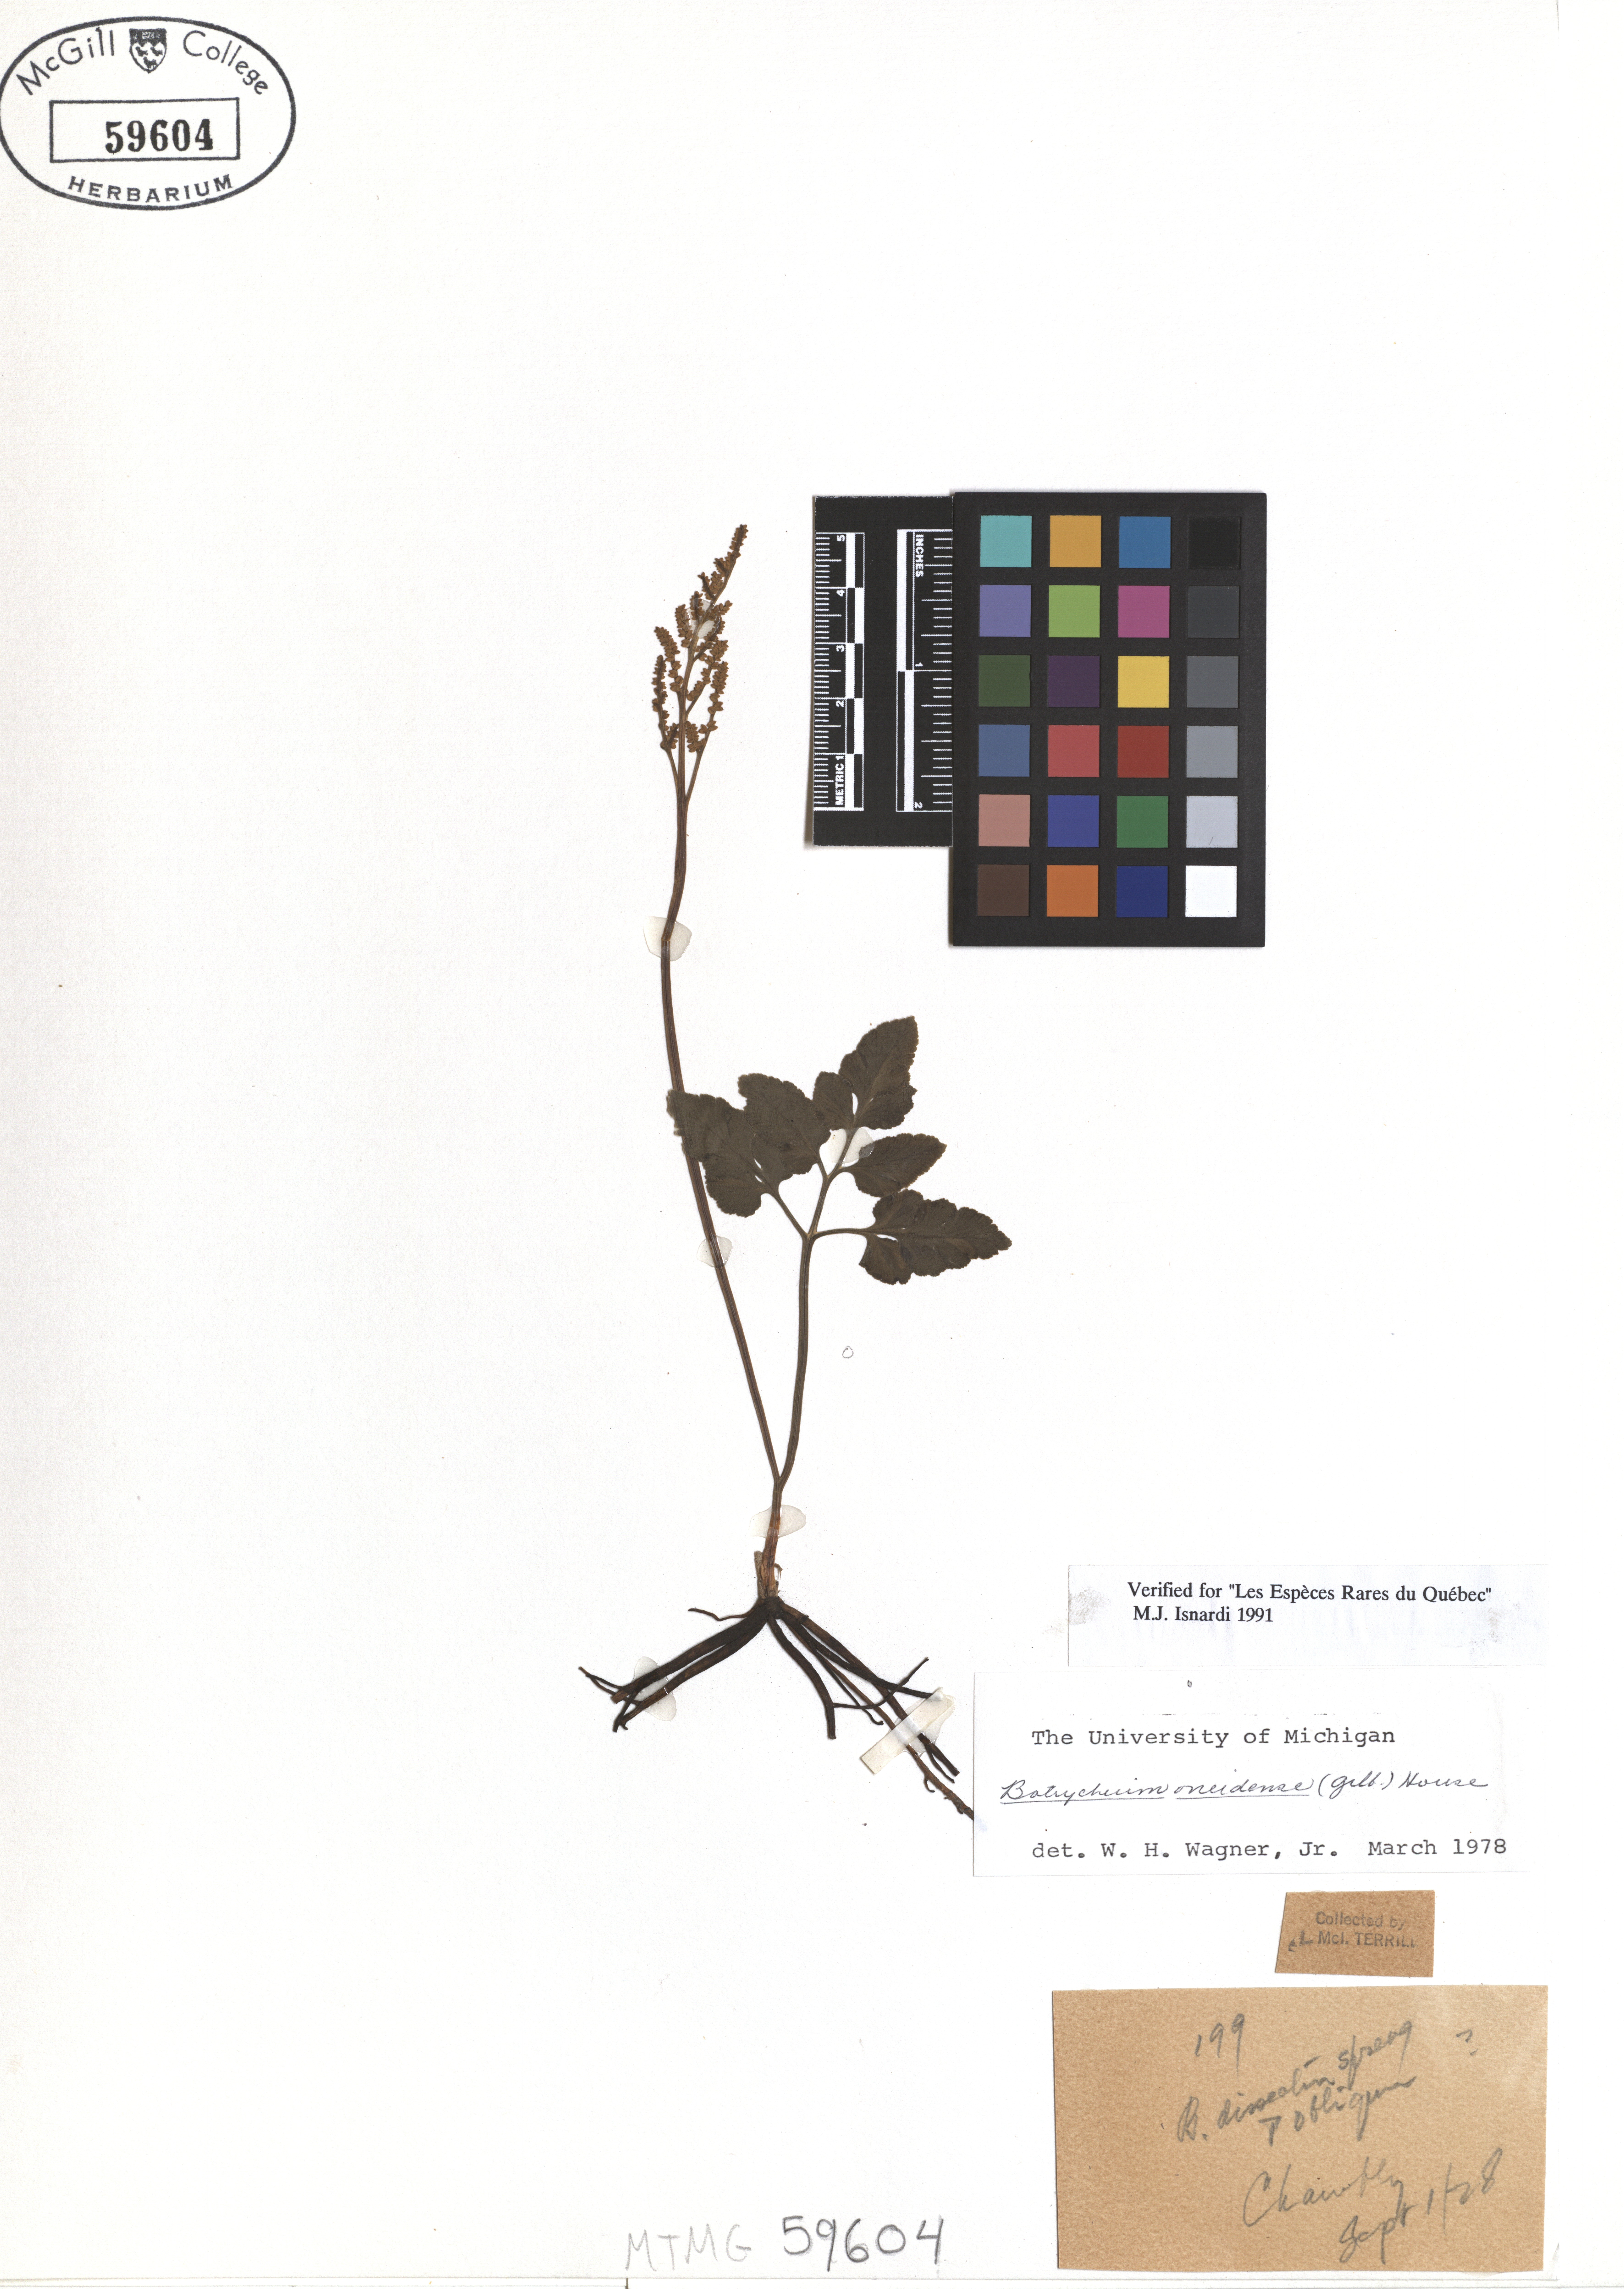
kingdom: Plantae
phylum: Tracheophyta
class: Polypodiopsida
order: Ophioglossales
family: Ophioglossaceae
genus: Sceptridium
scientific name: Sceptridium oneidense
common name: Blunt-lobed grapefern
